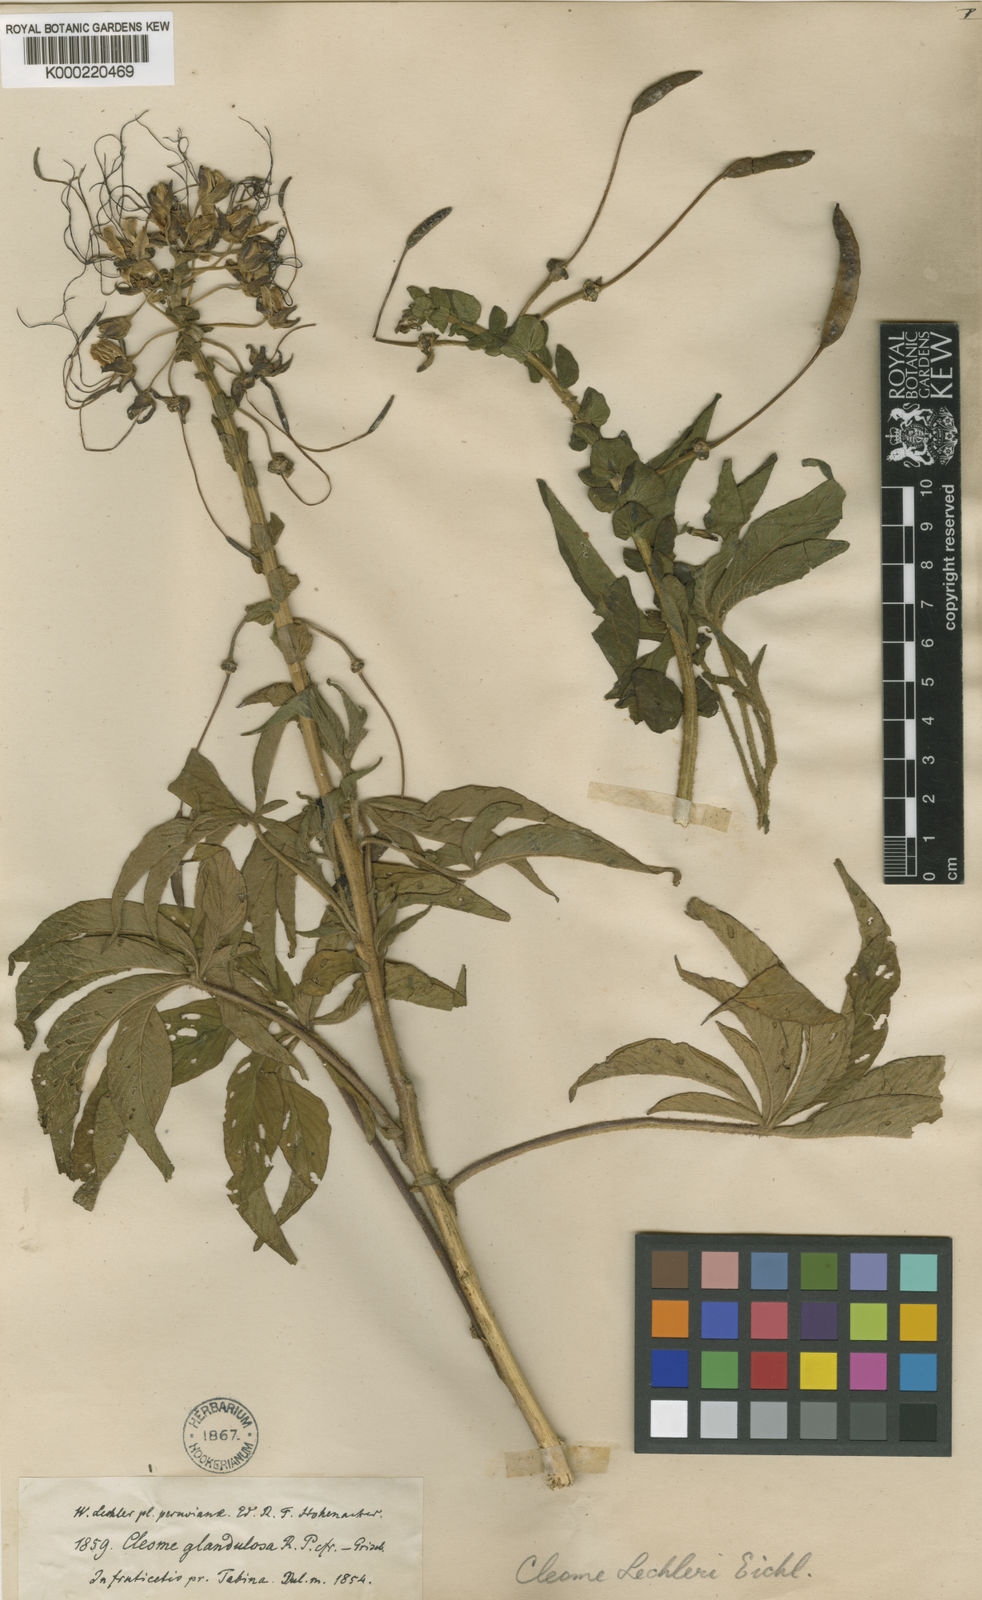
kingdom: Plantae
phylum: Tracheophyta
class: Magnoliopsida
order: Brassicales
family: Cleomaceae
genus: Andinocleome
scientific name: Andinocleome lechleri
